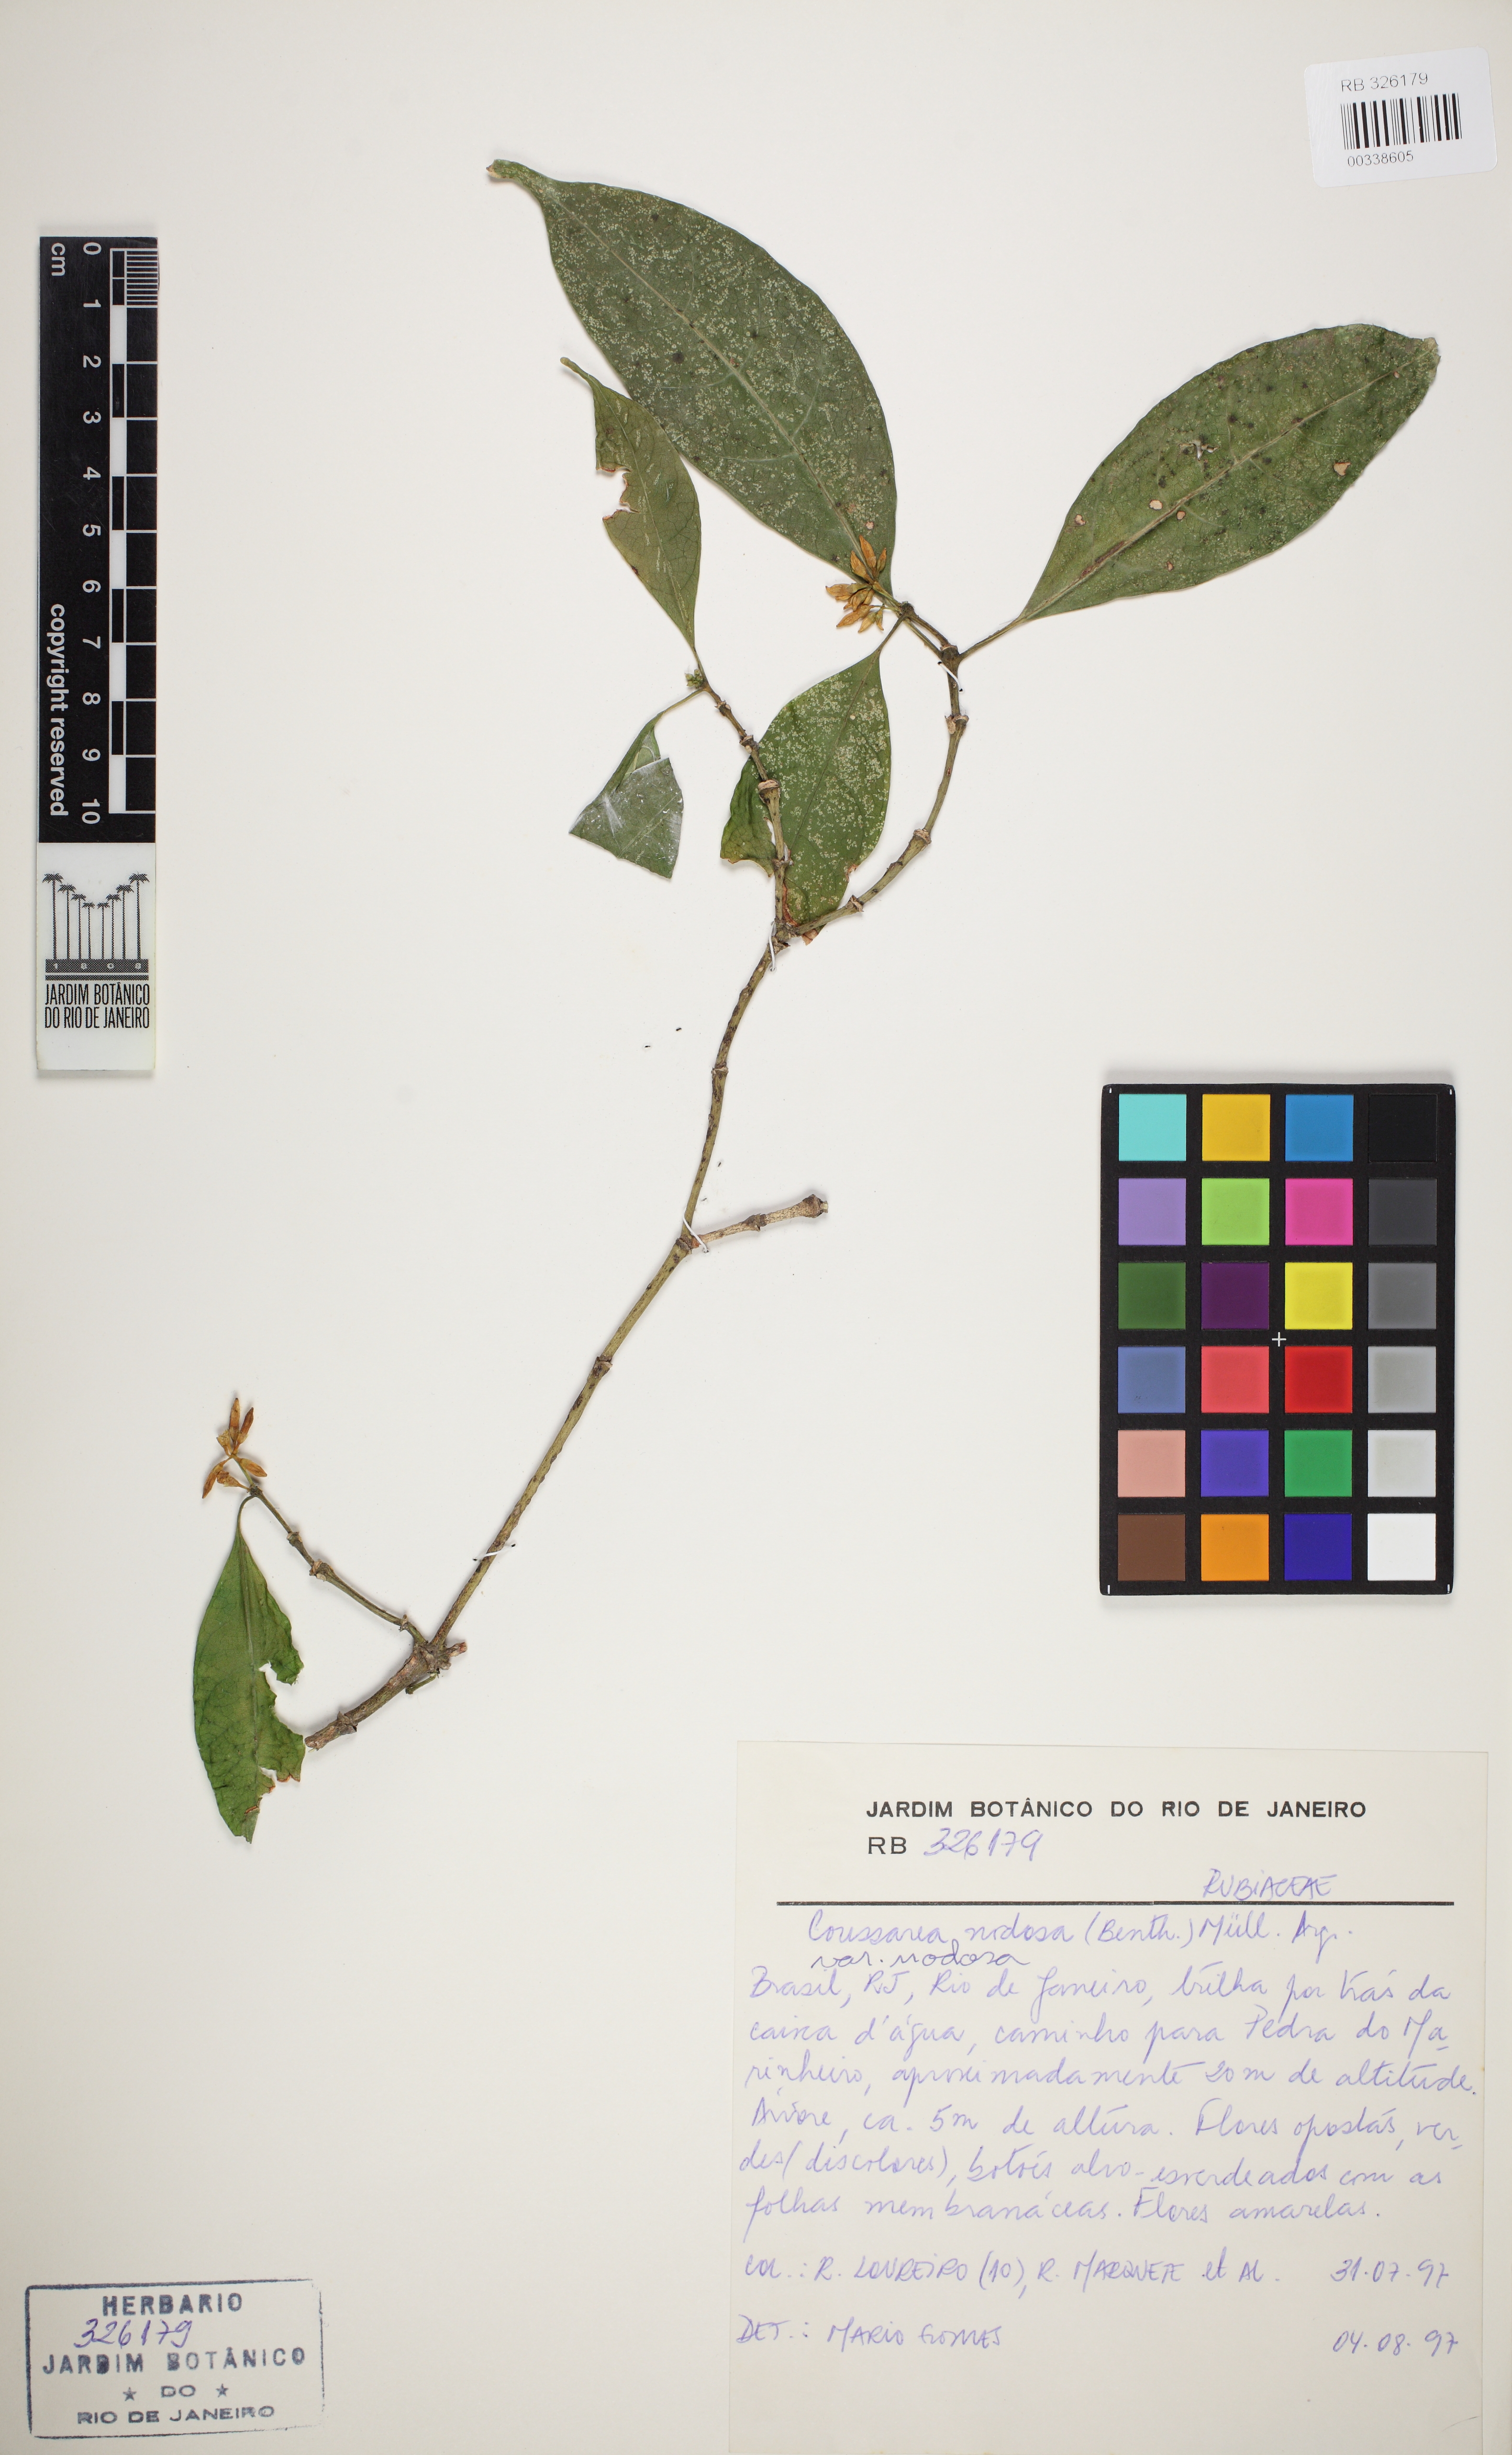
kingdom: Plantae
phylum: Tracheophyta
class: Magnoliopsida
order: Gentianales
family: Rubiaceae
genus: Coussarea
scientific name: Coussarea nodosa
